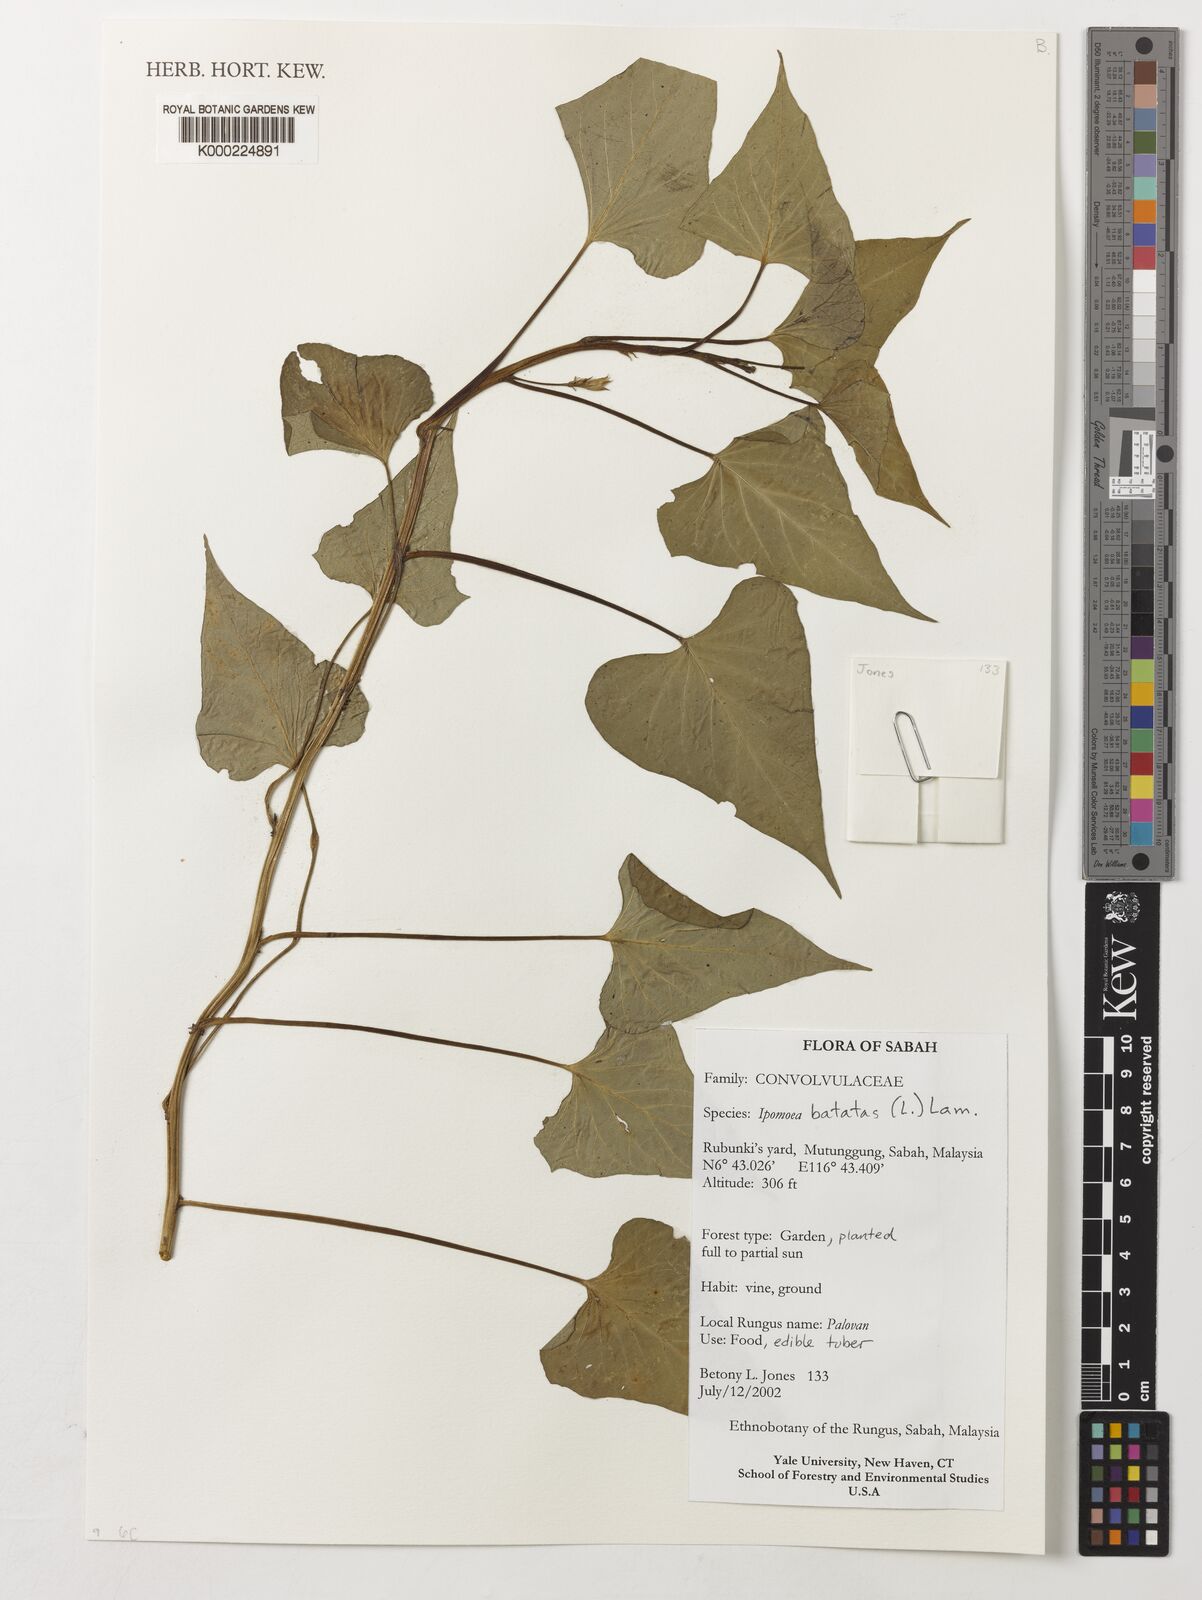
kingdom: Plantae
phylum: Tracheophyta
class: Magnoliopsida
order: Solanales
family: Convolvulaceae
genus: Ipomoea
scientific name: Ipomoea batatas
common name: Sweet-potato
